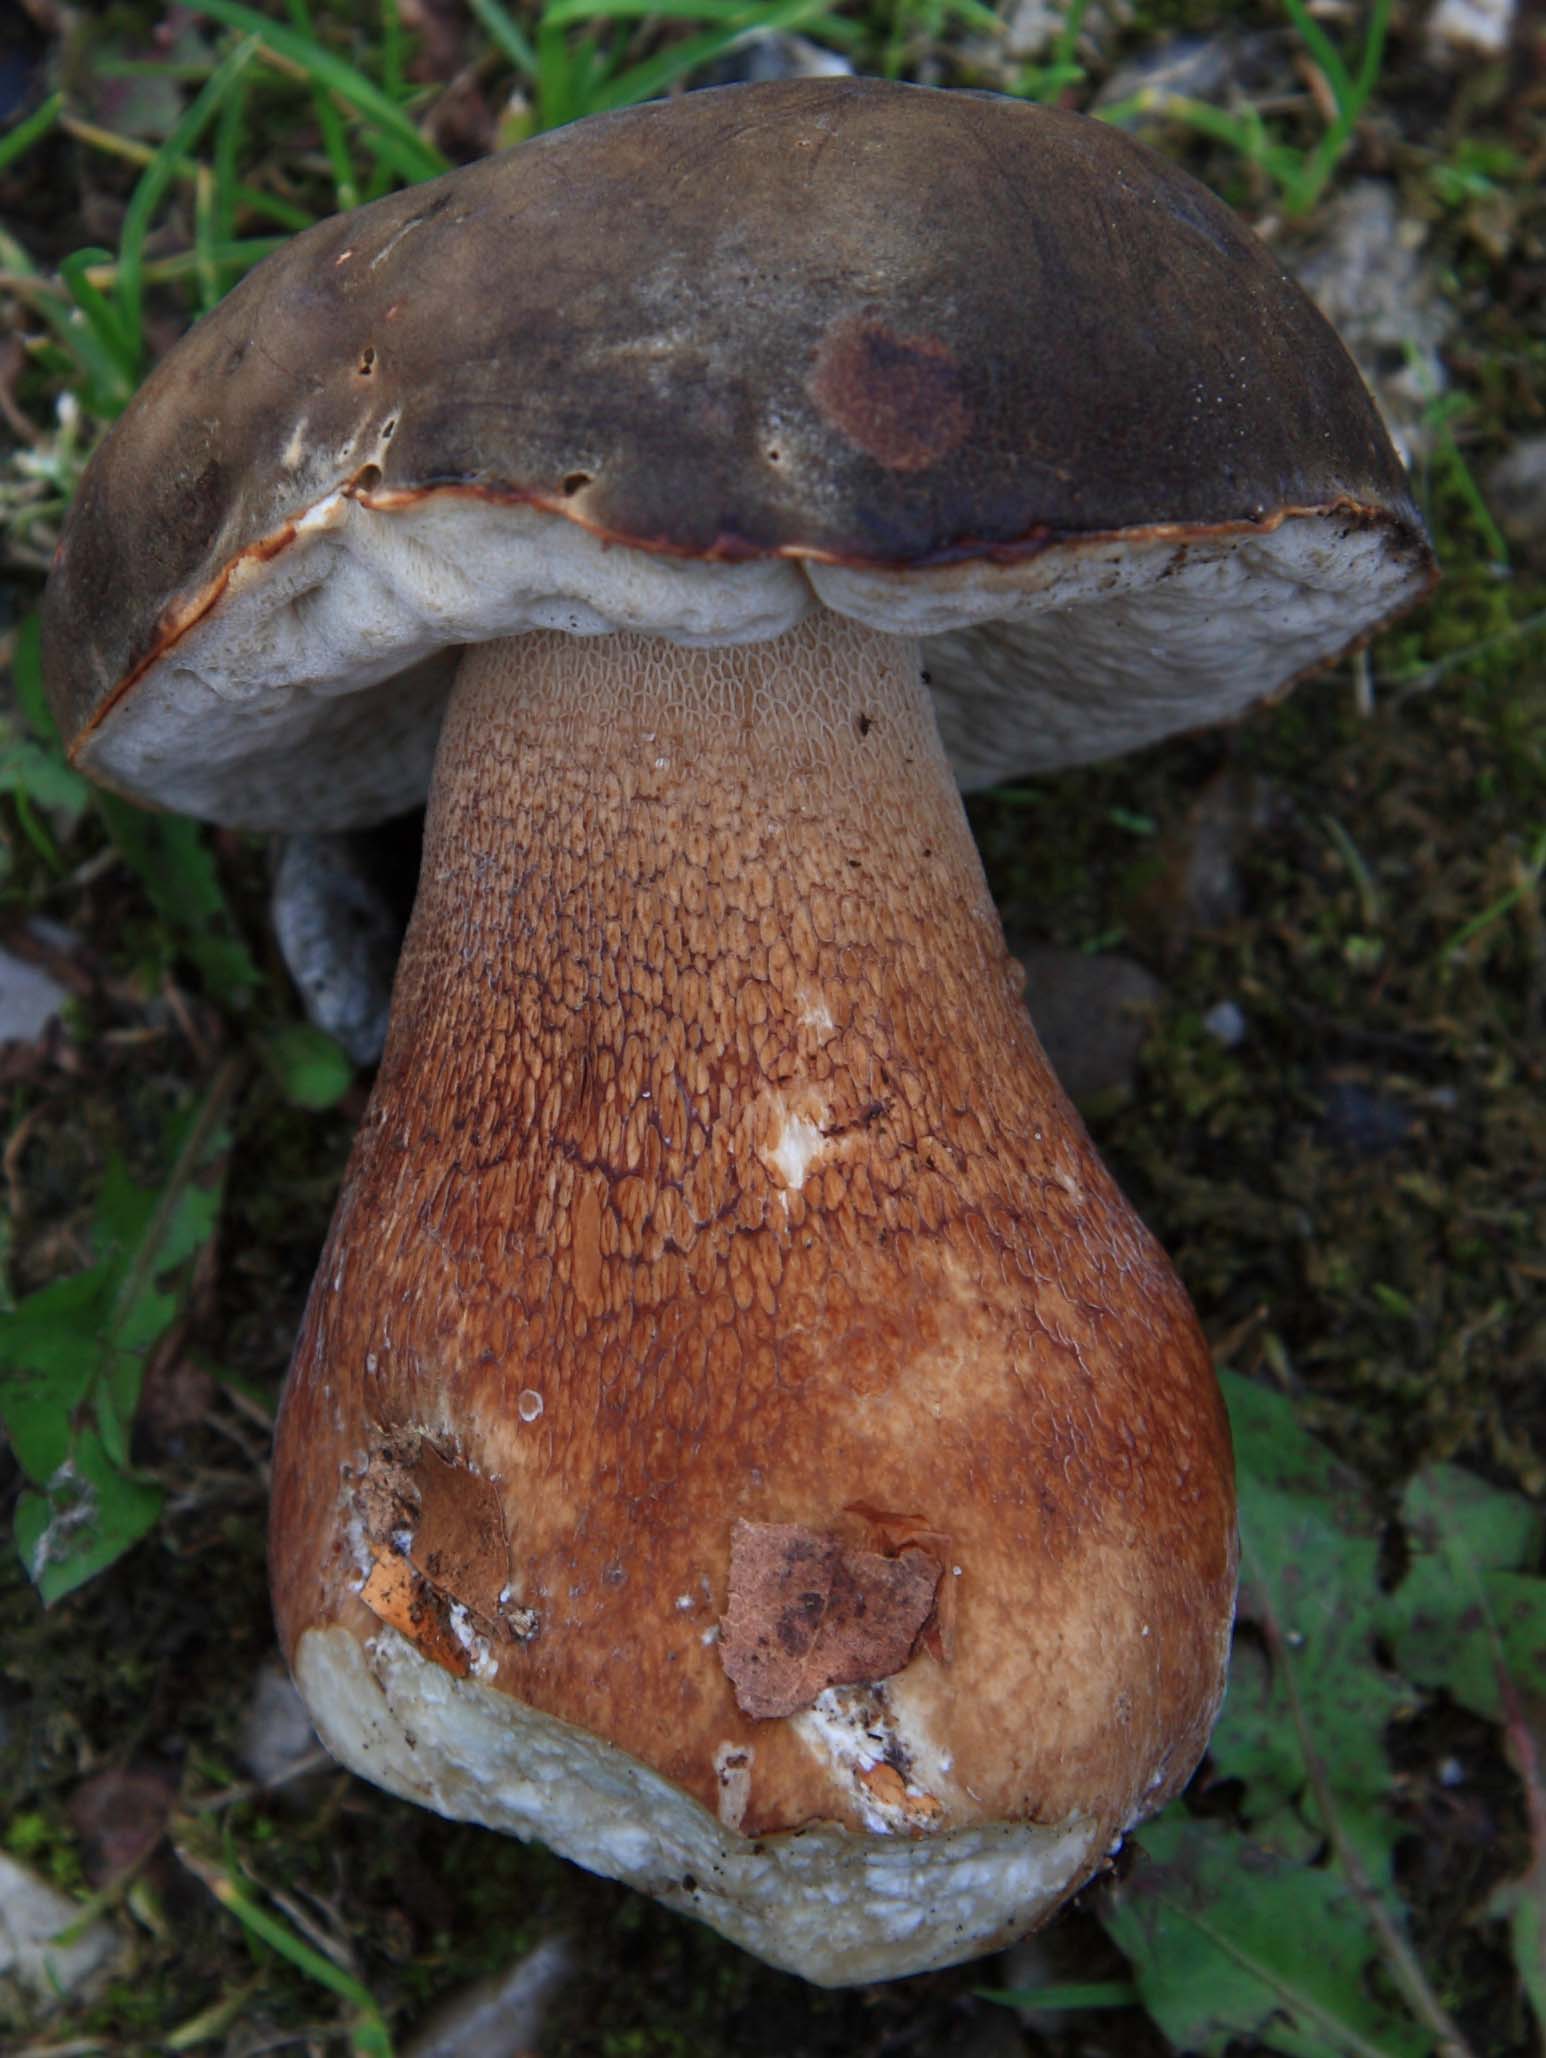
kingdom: Fungi
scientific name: Fungi
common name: bronze-rørhat
